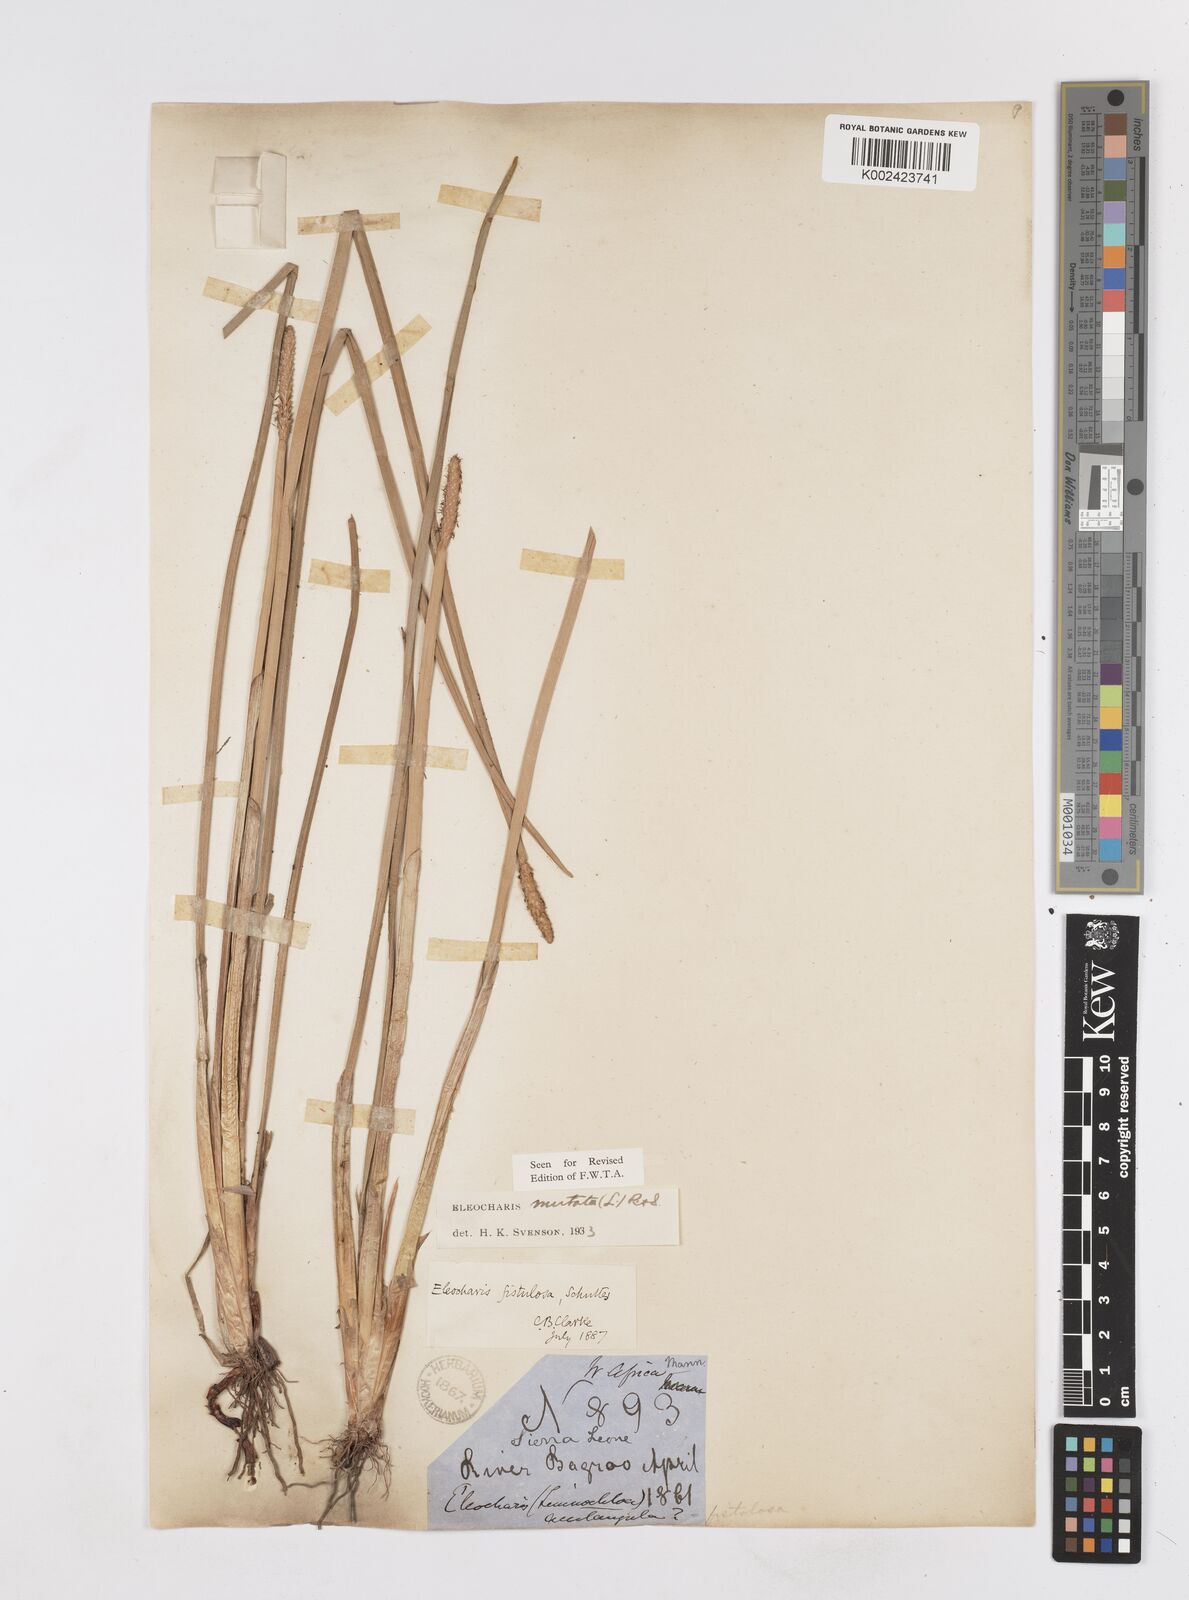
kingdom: Plantae
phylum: Tracheophyta
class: Liliopsida
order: Poales
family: Cyperaceae
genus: Eleocharis
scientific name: Eleocharis mutata
